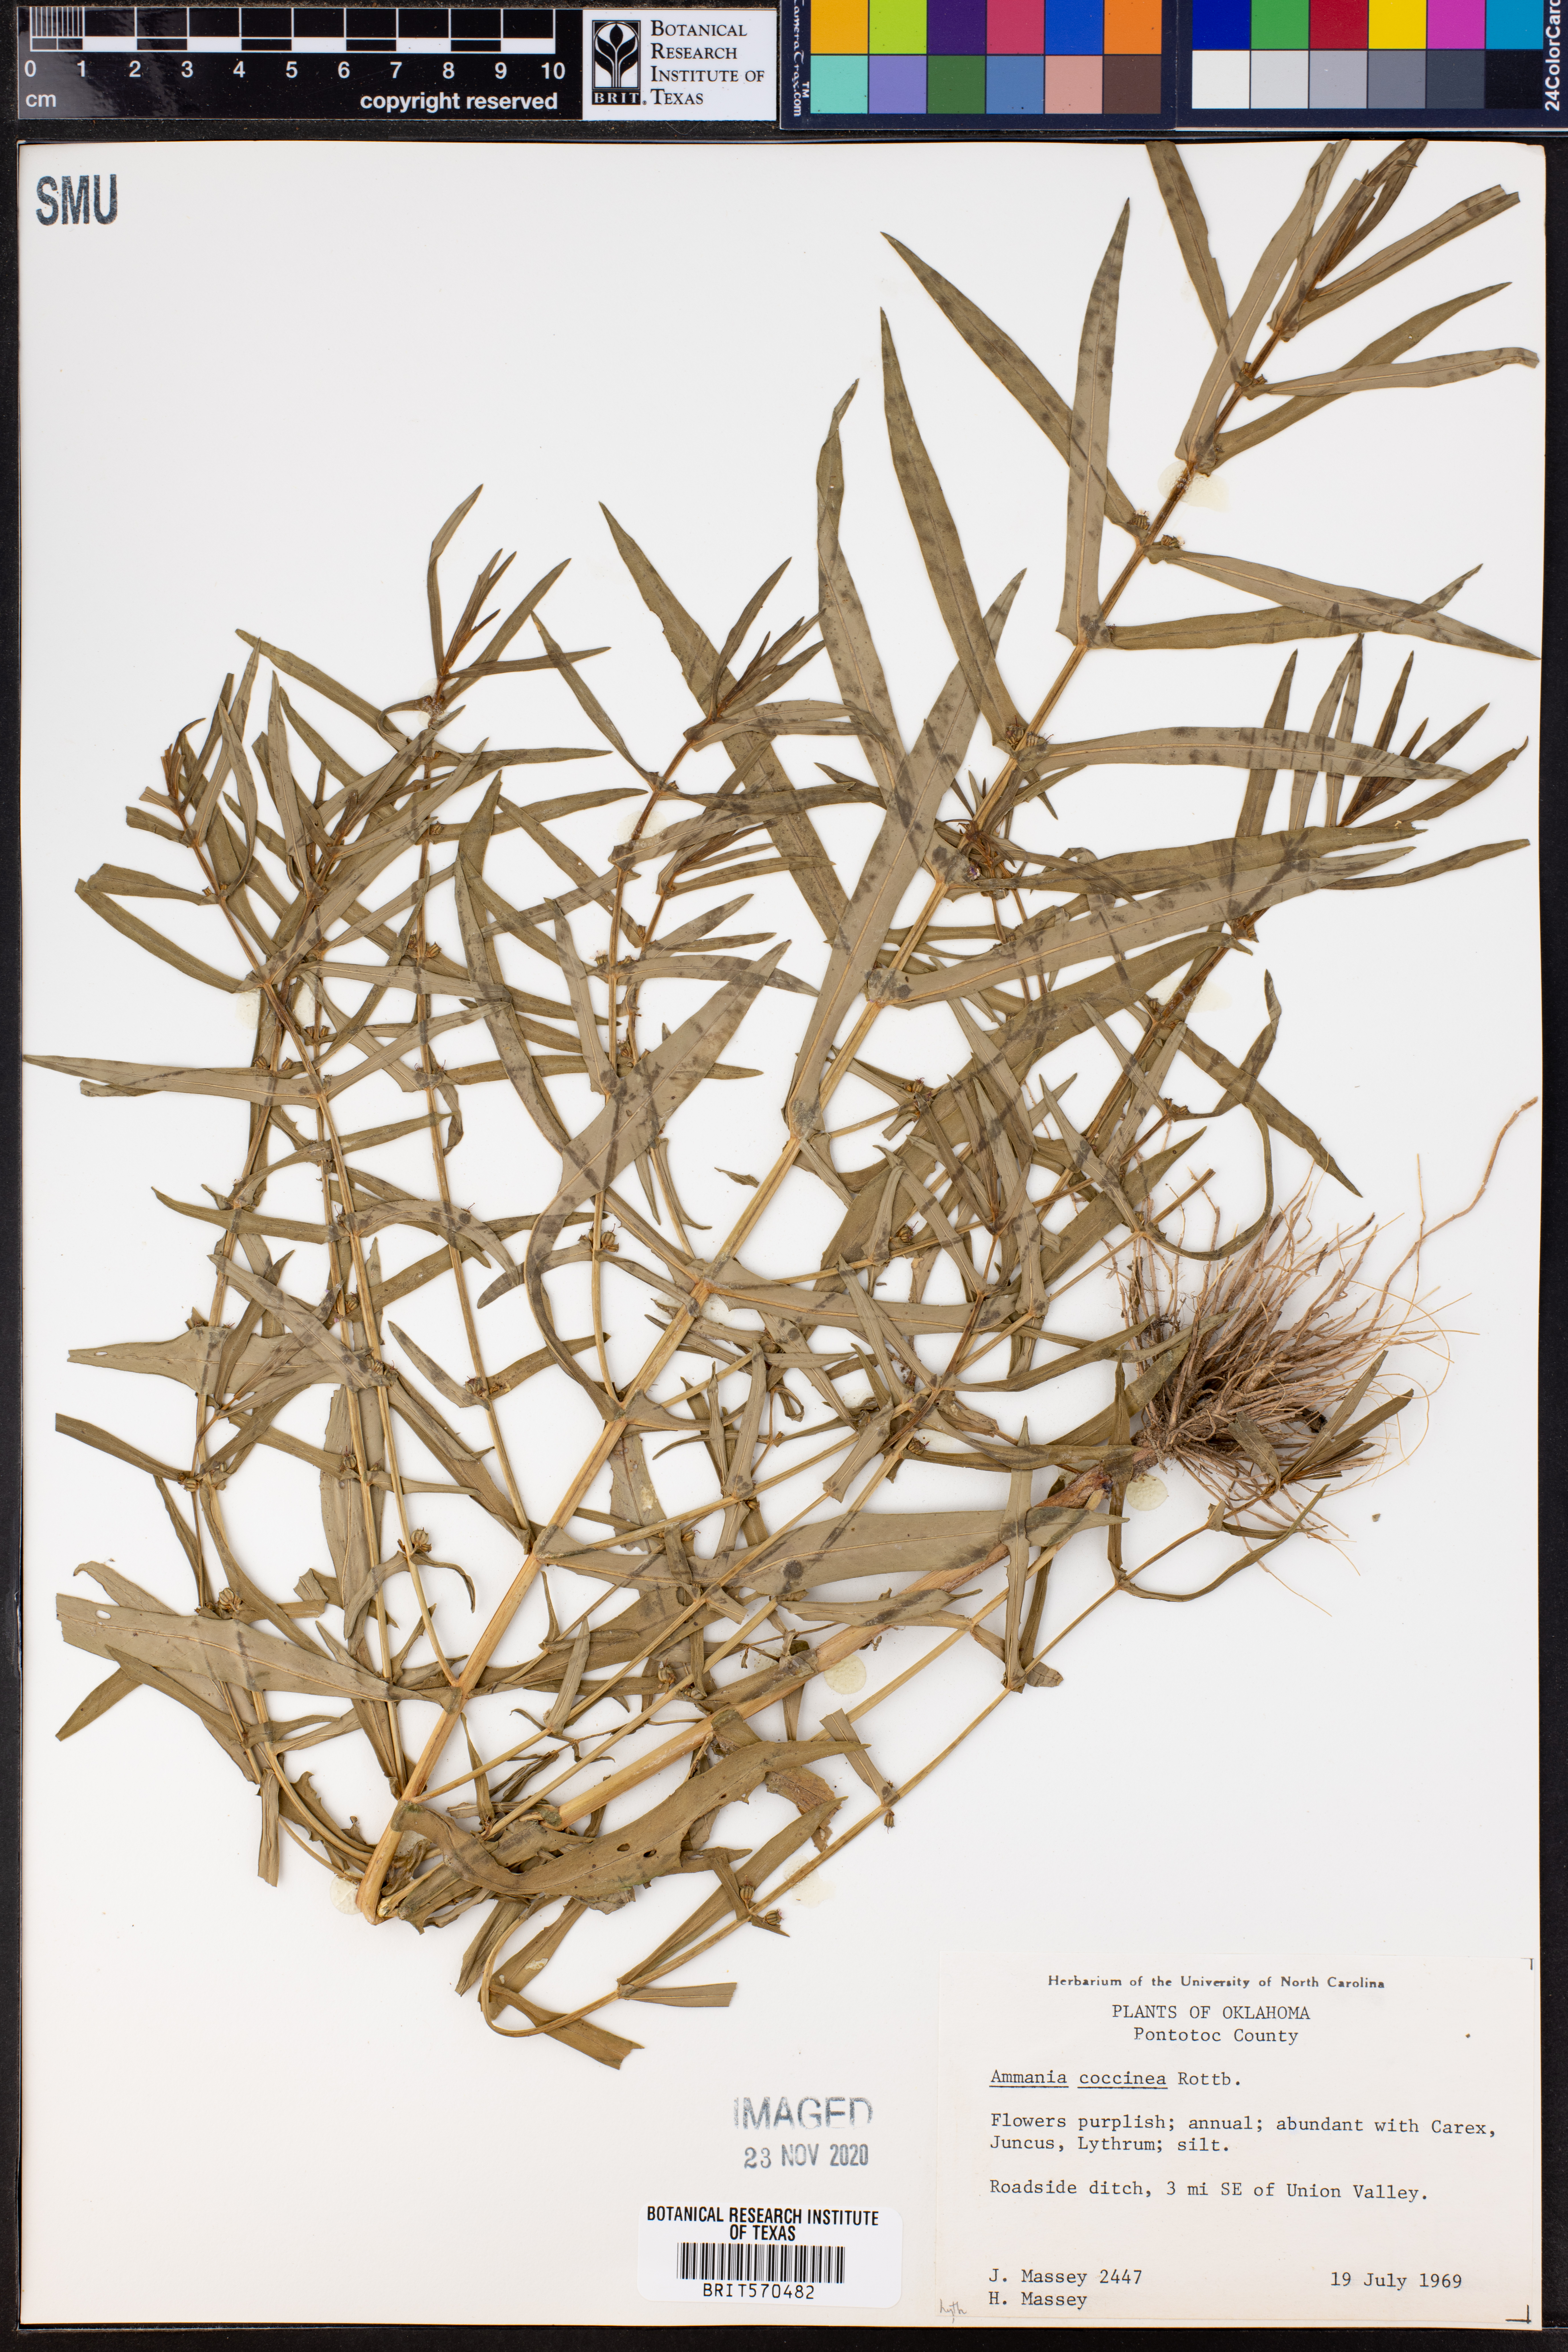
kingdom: Plantae
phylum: Tracheophyta
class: Magnoliopsida
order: Myrtales
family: Lythraceae
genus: Ammannia
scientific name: Ammannia coccinea
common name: Valley redstem
